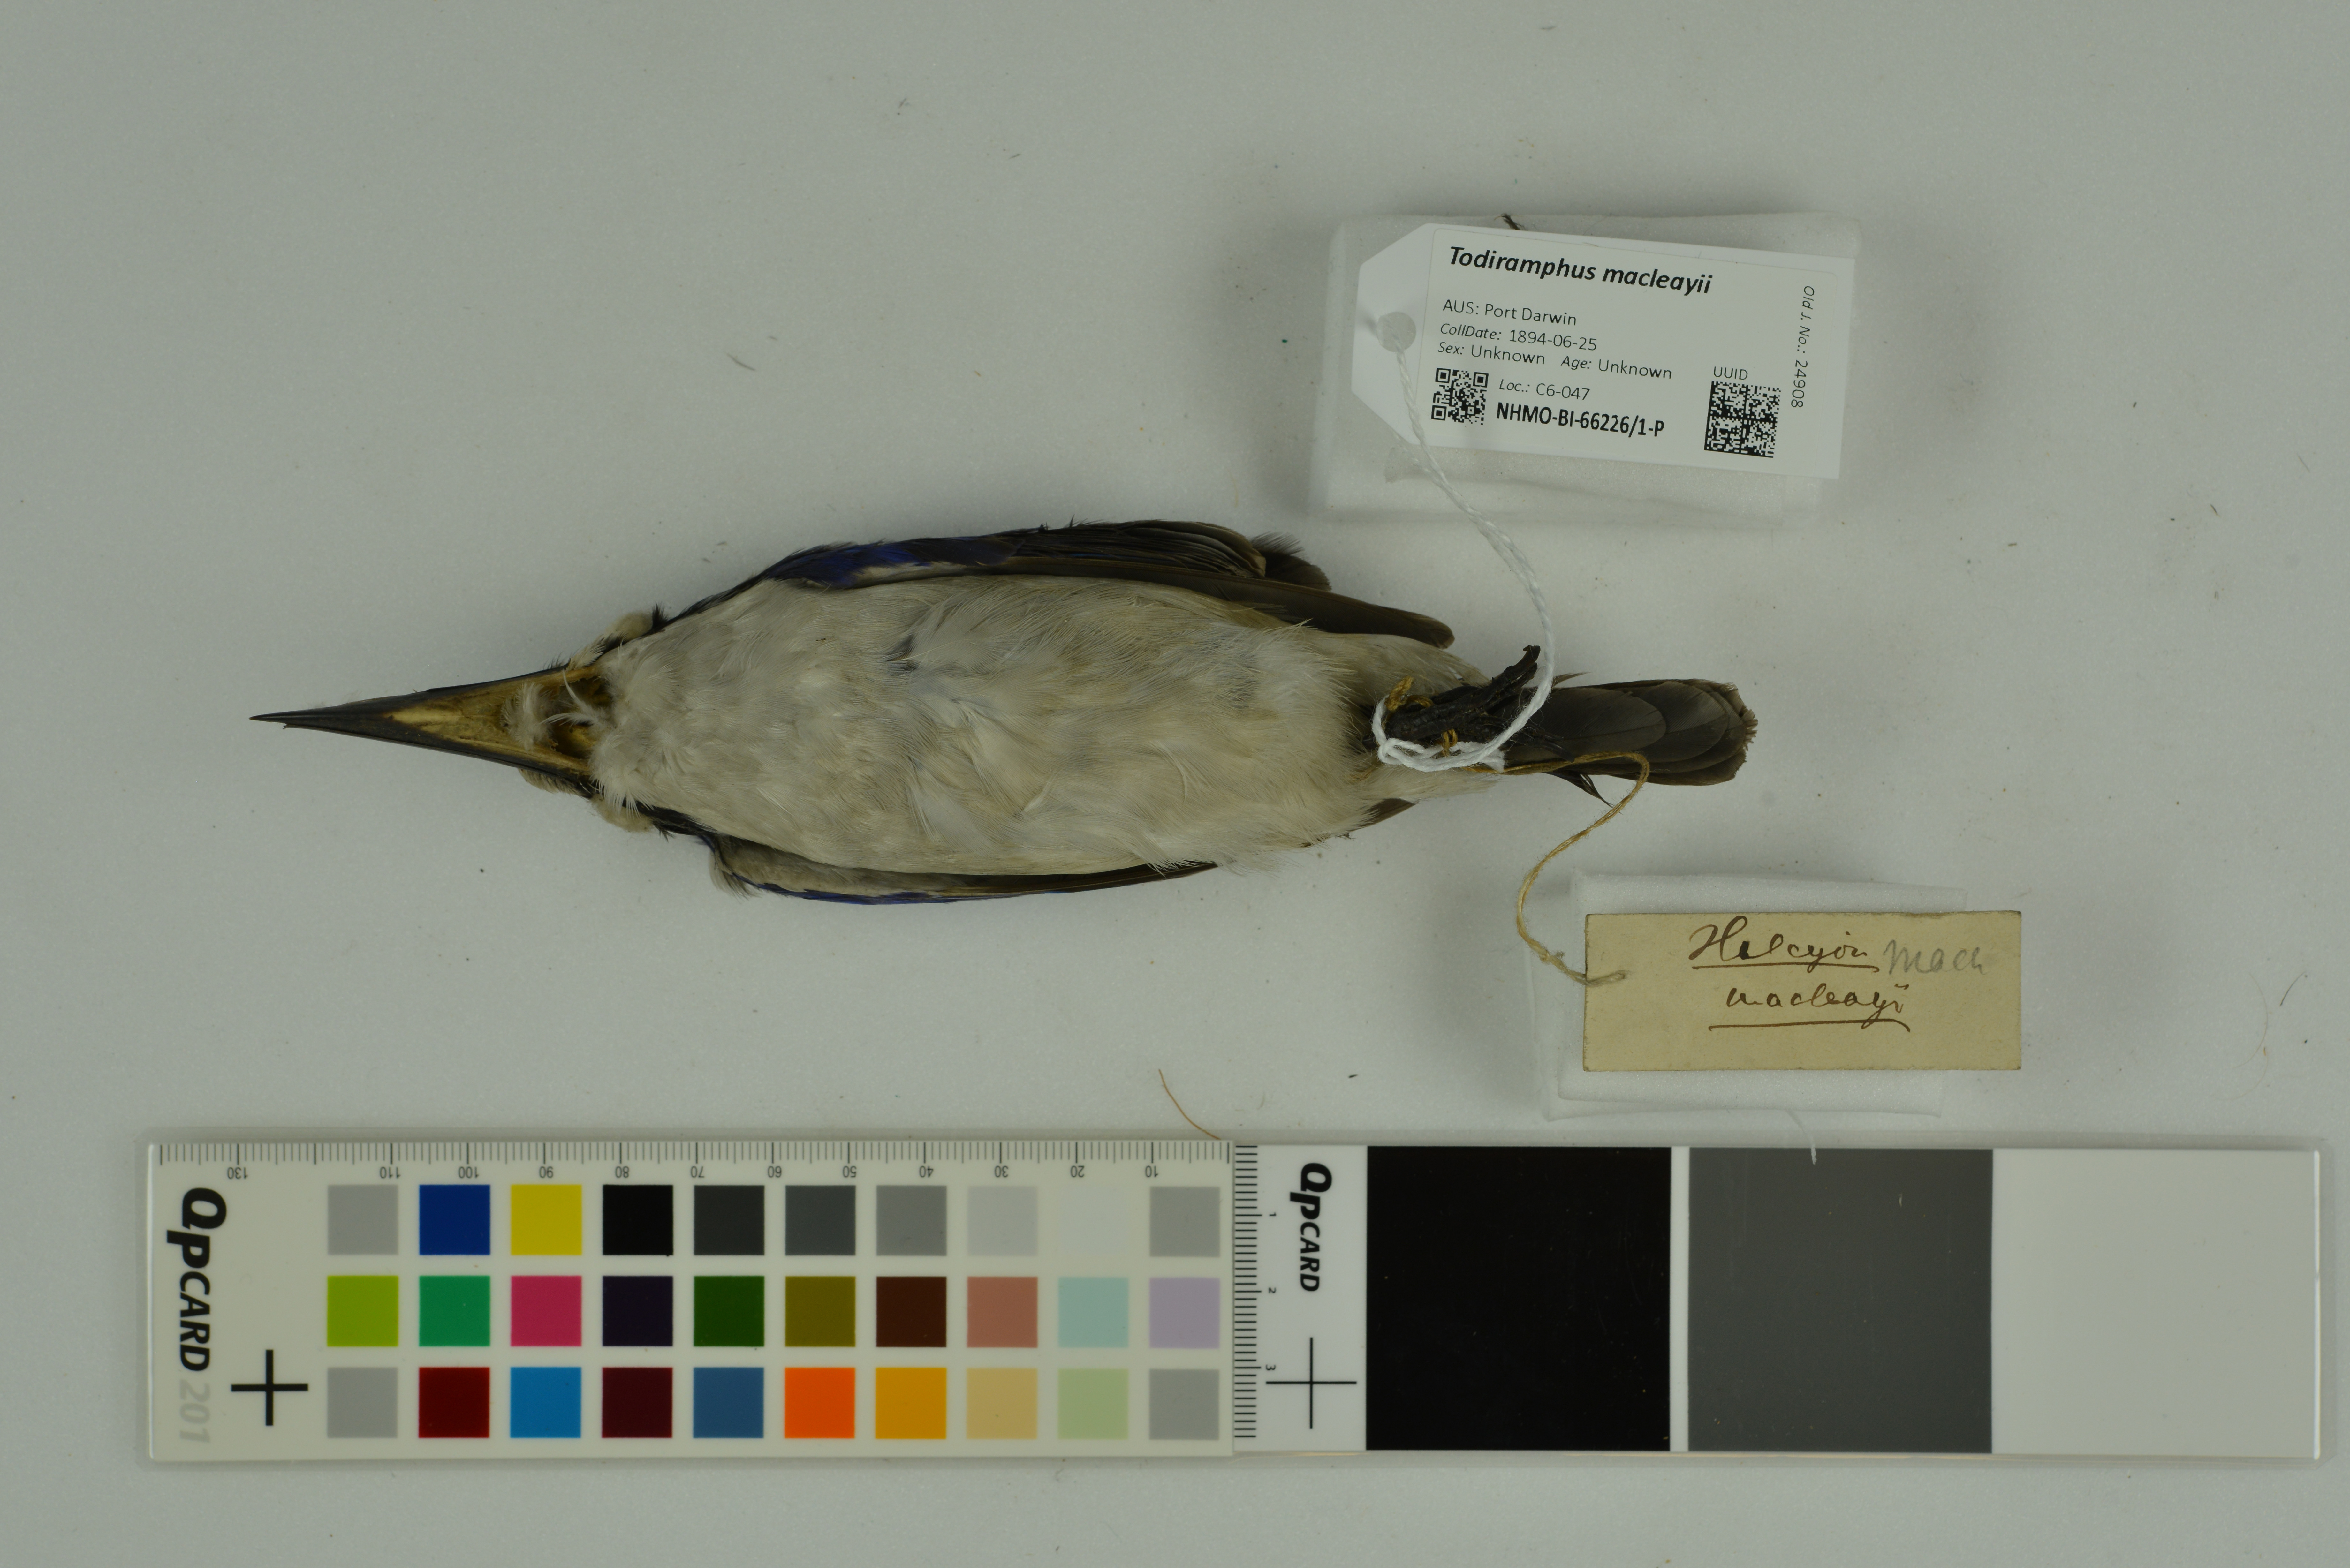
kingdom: Animalia
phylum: Chordata
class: Aves
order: Coraciiformes
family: Alcedinidae
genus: Todiramphus
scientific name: Todiramphus macleayii
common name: Forest kingfisher
